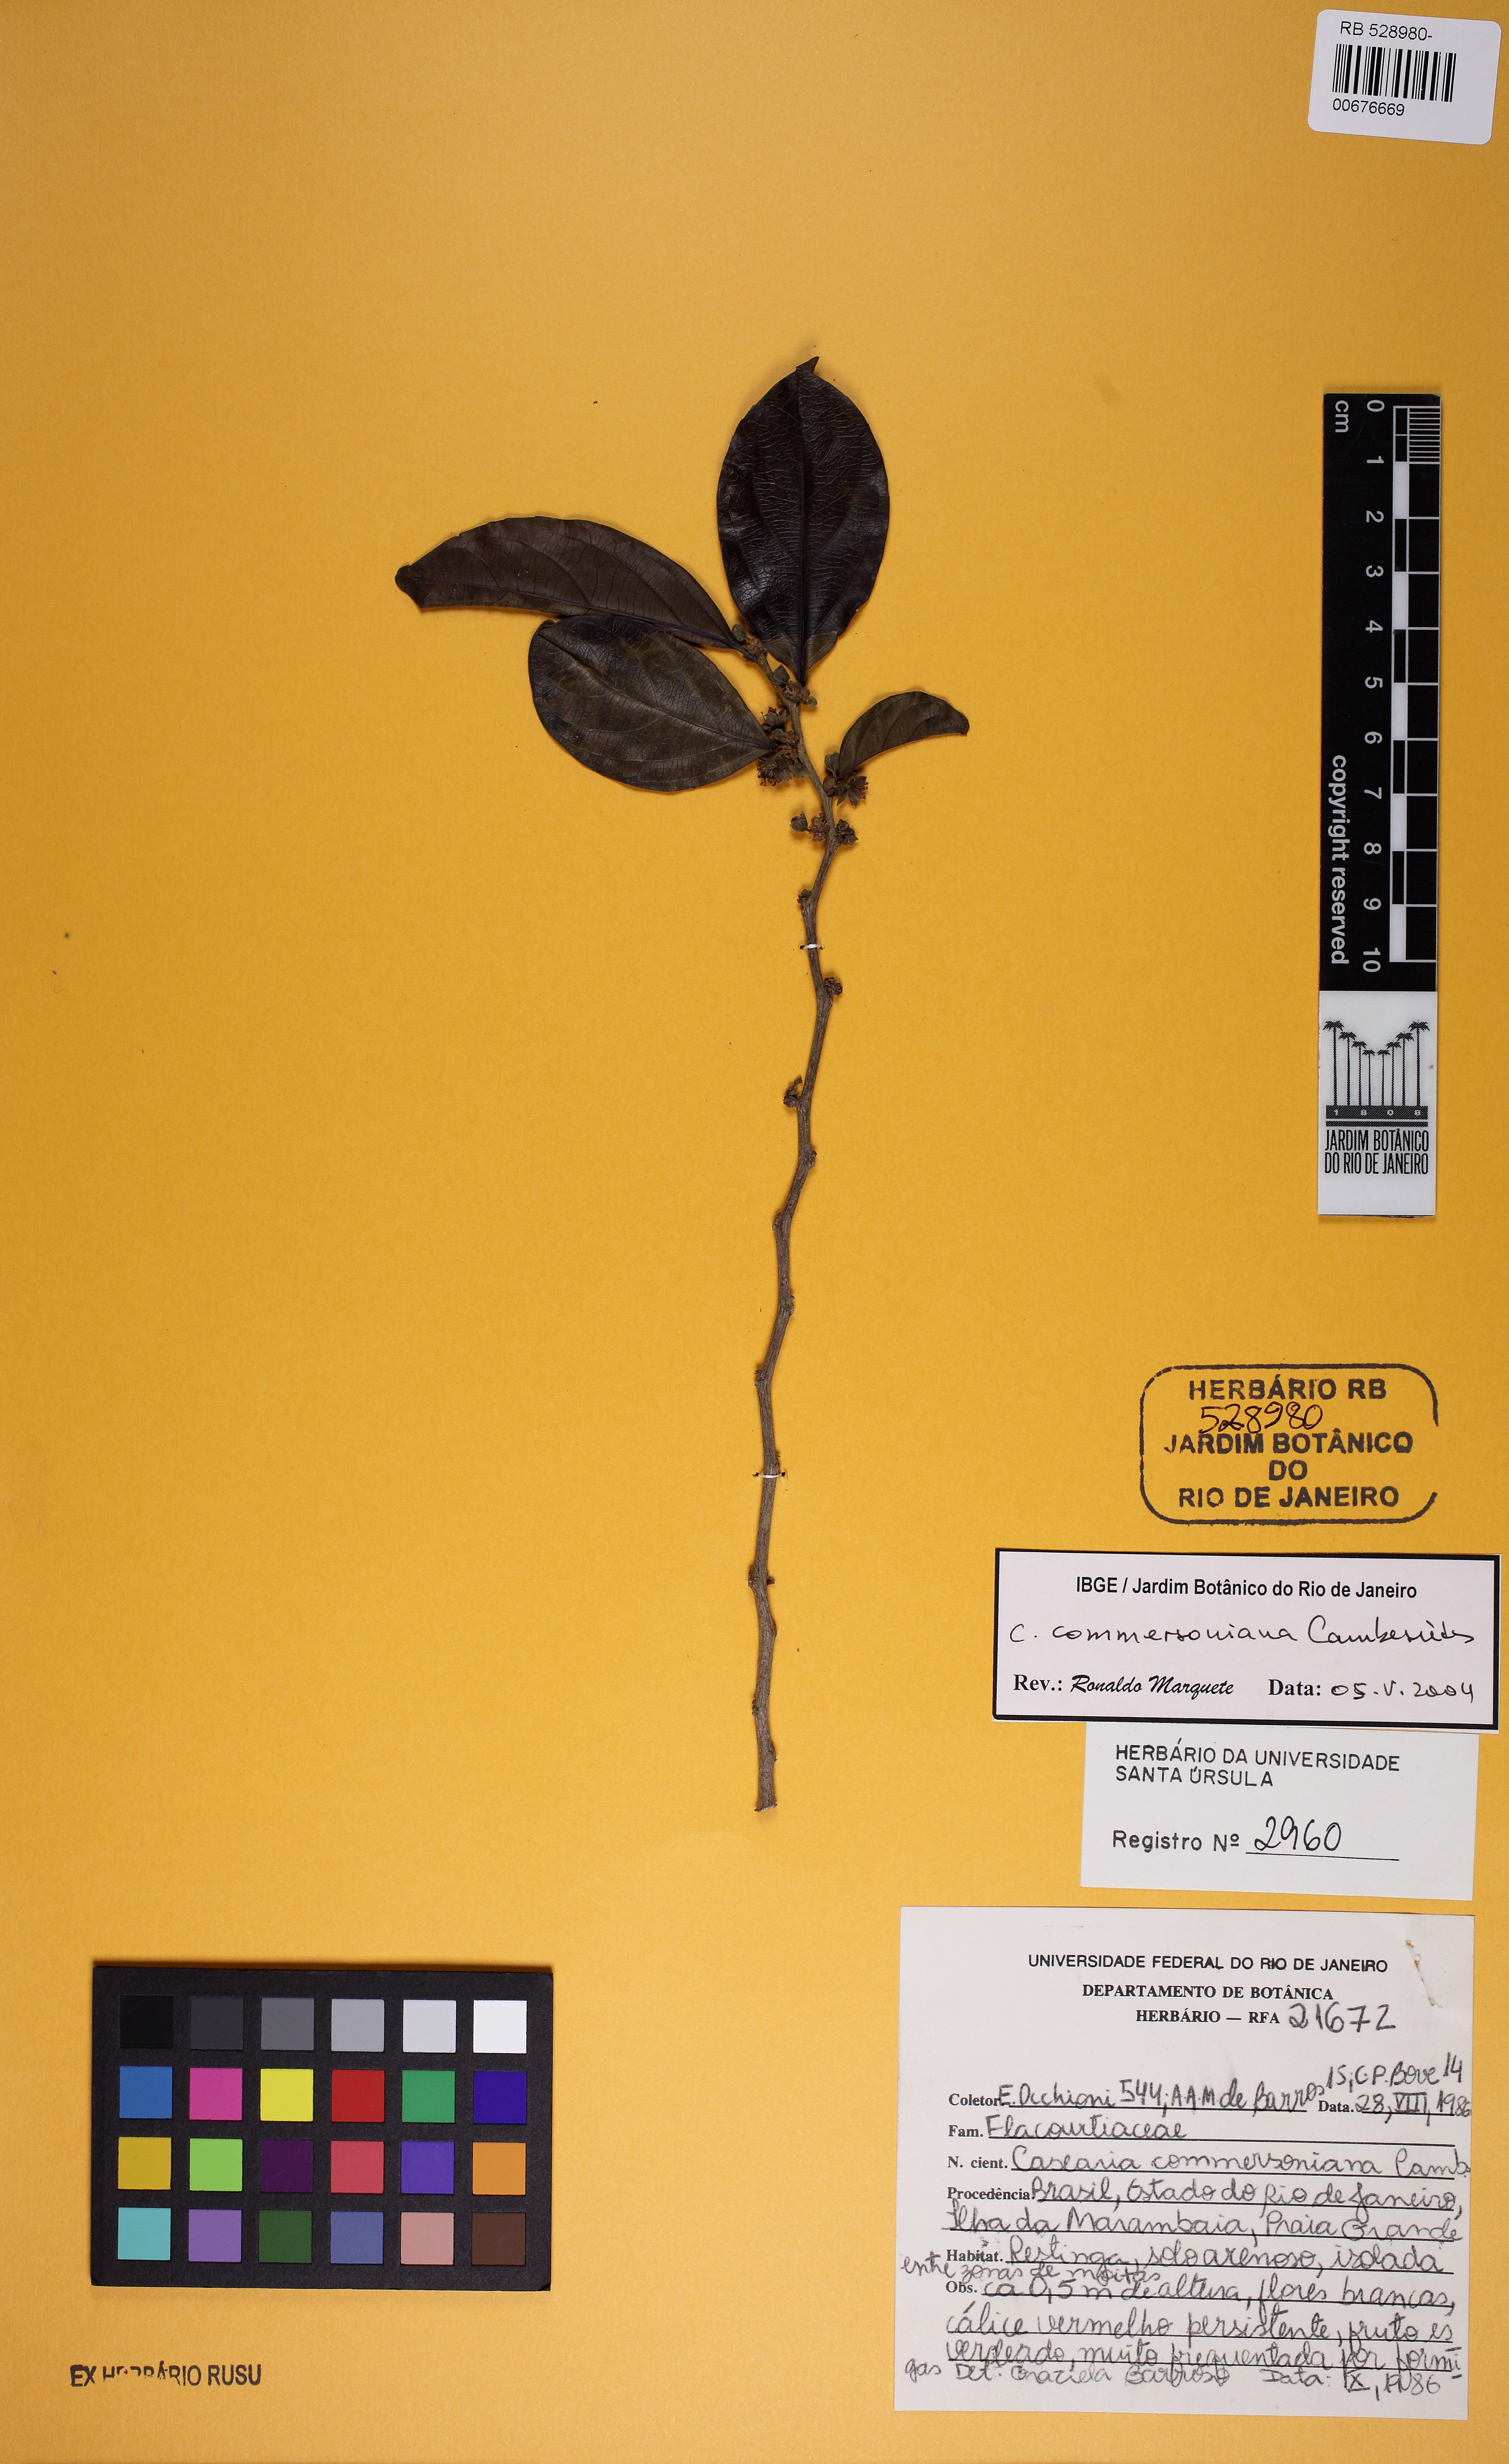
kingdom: Plantae
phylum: Tracheophyta
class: Magnoliopsida
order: Malpighiales
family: Salicaceae
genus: Piparea
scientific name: Piparea dentata
